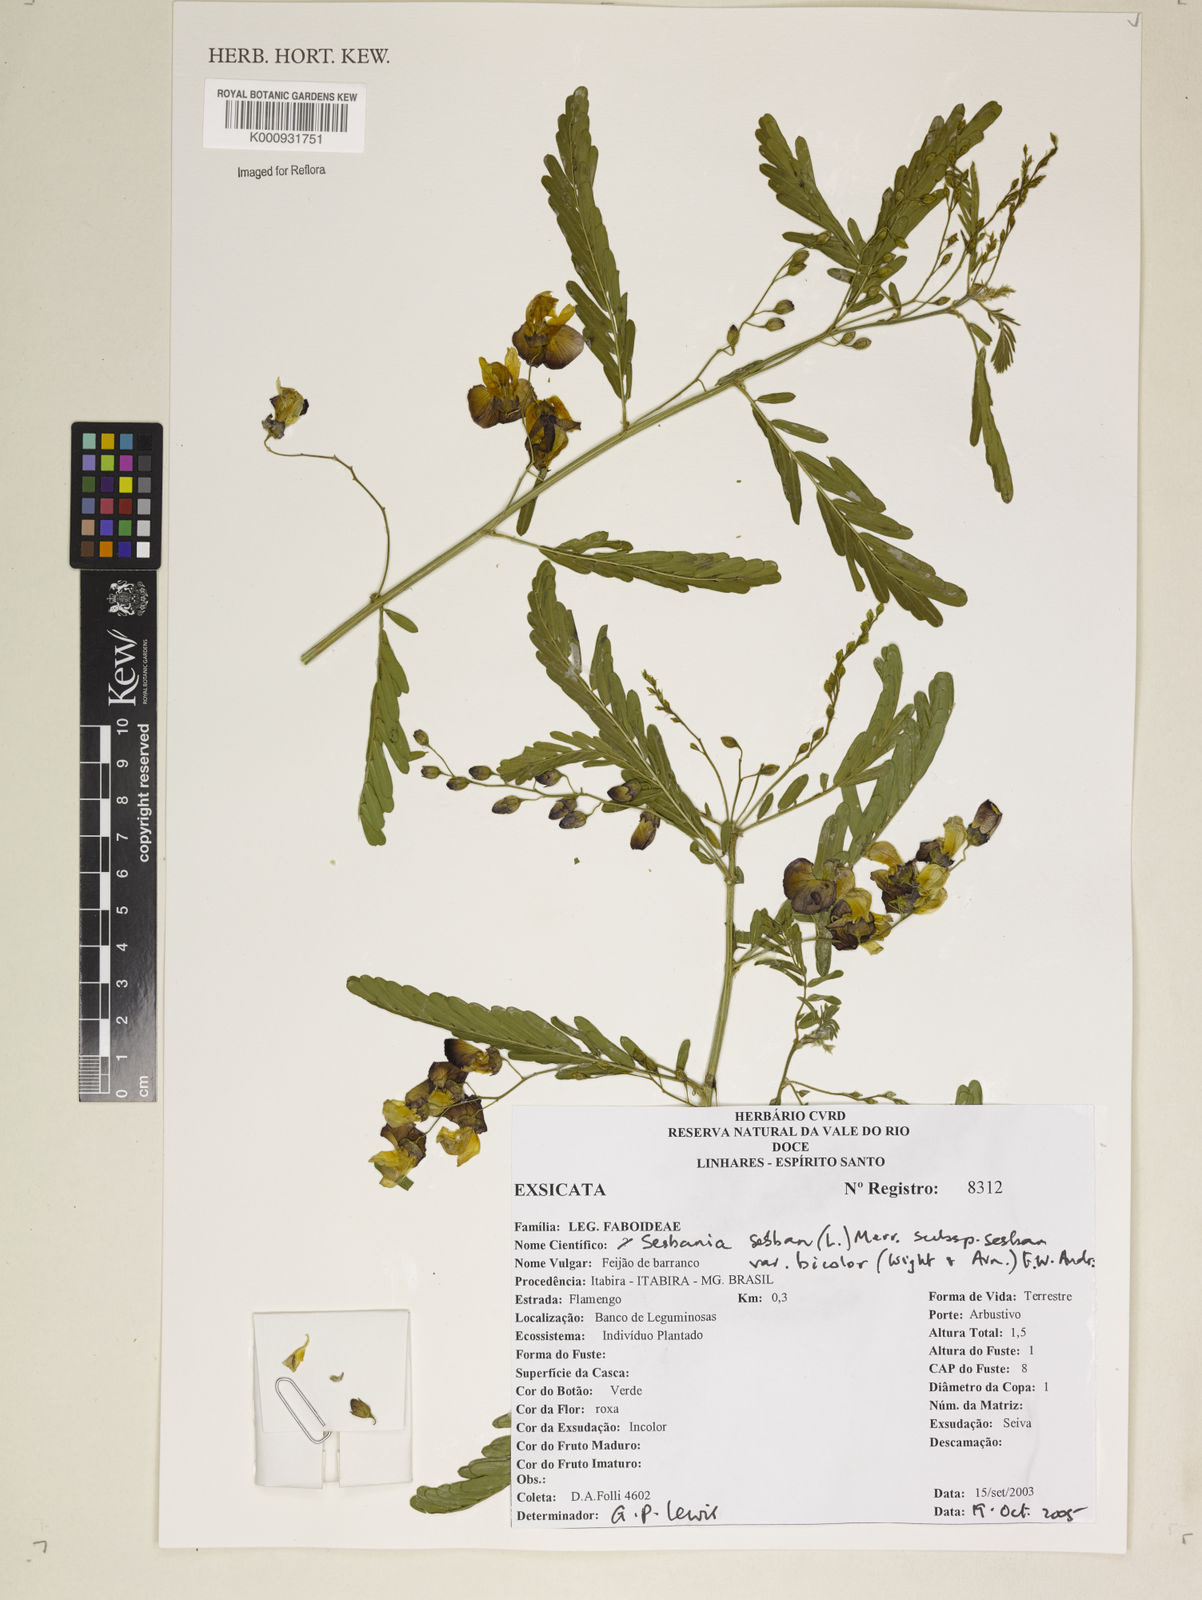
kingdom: Plantae
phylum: Tracheophyta
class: Magnoliopsida
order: Fabales
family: Fabaceae
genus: Sesbania
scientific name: Sesbania
